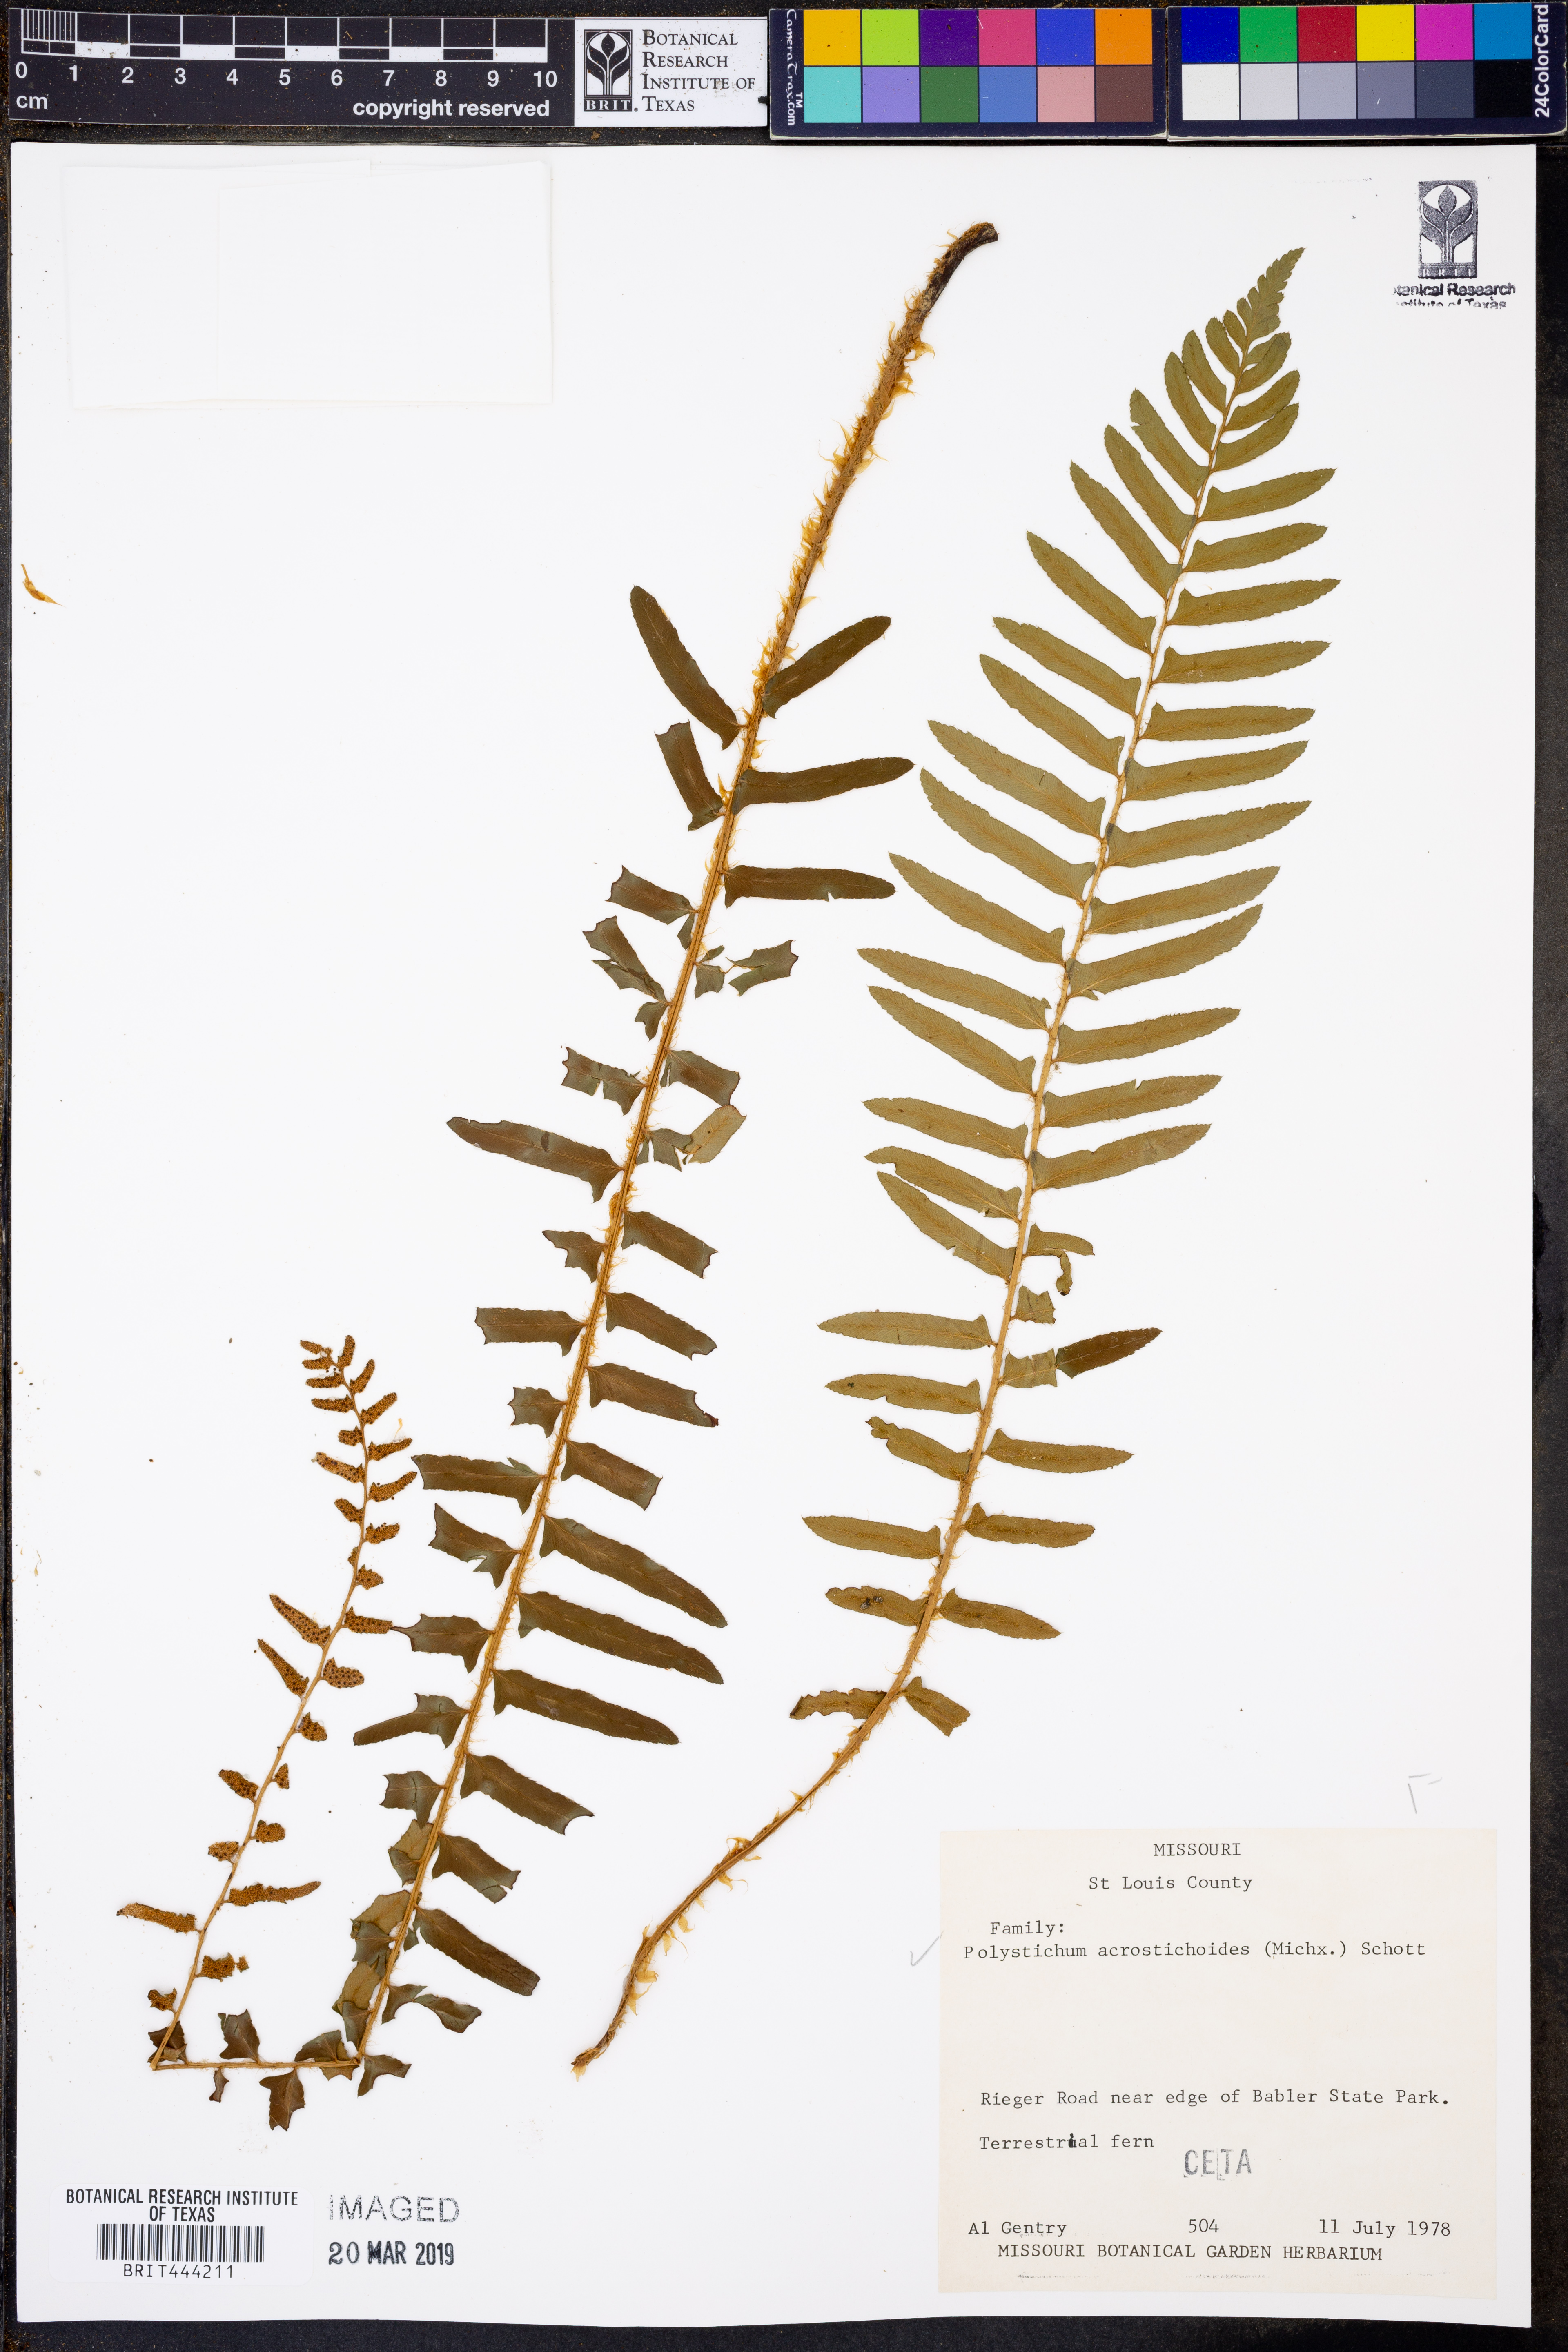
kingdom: Plantae
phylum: Tracheophyta
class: Polypodiopsida
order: Polypodiales
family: Dryopteridaceae
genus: Polystichum
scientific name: Polystichum acrostichoides
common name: Christmas fern
